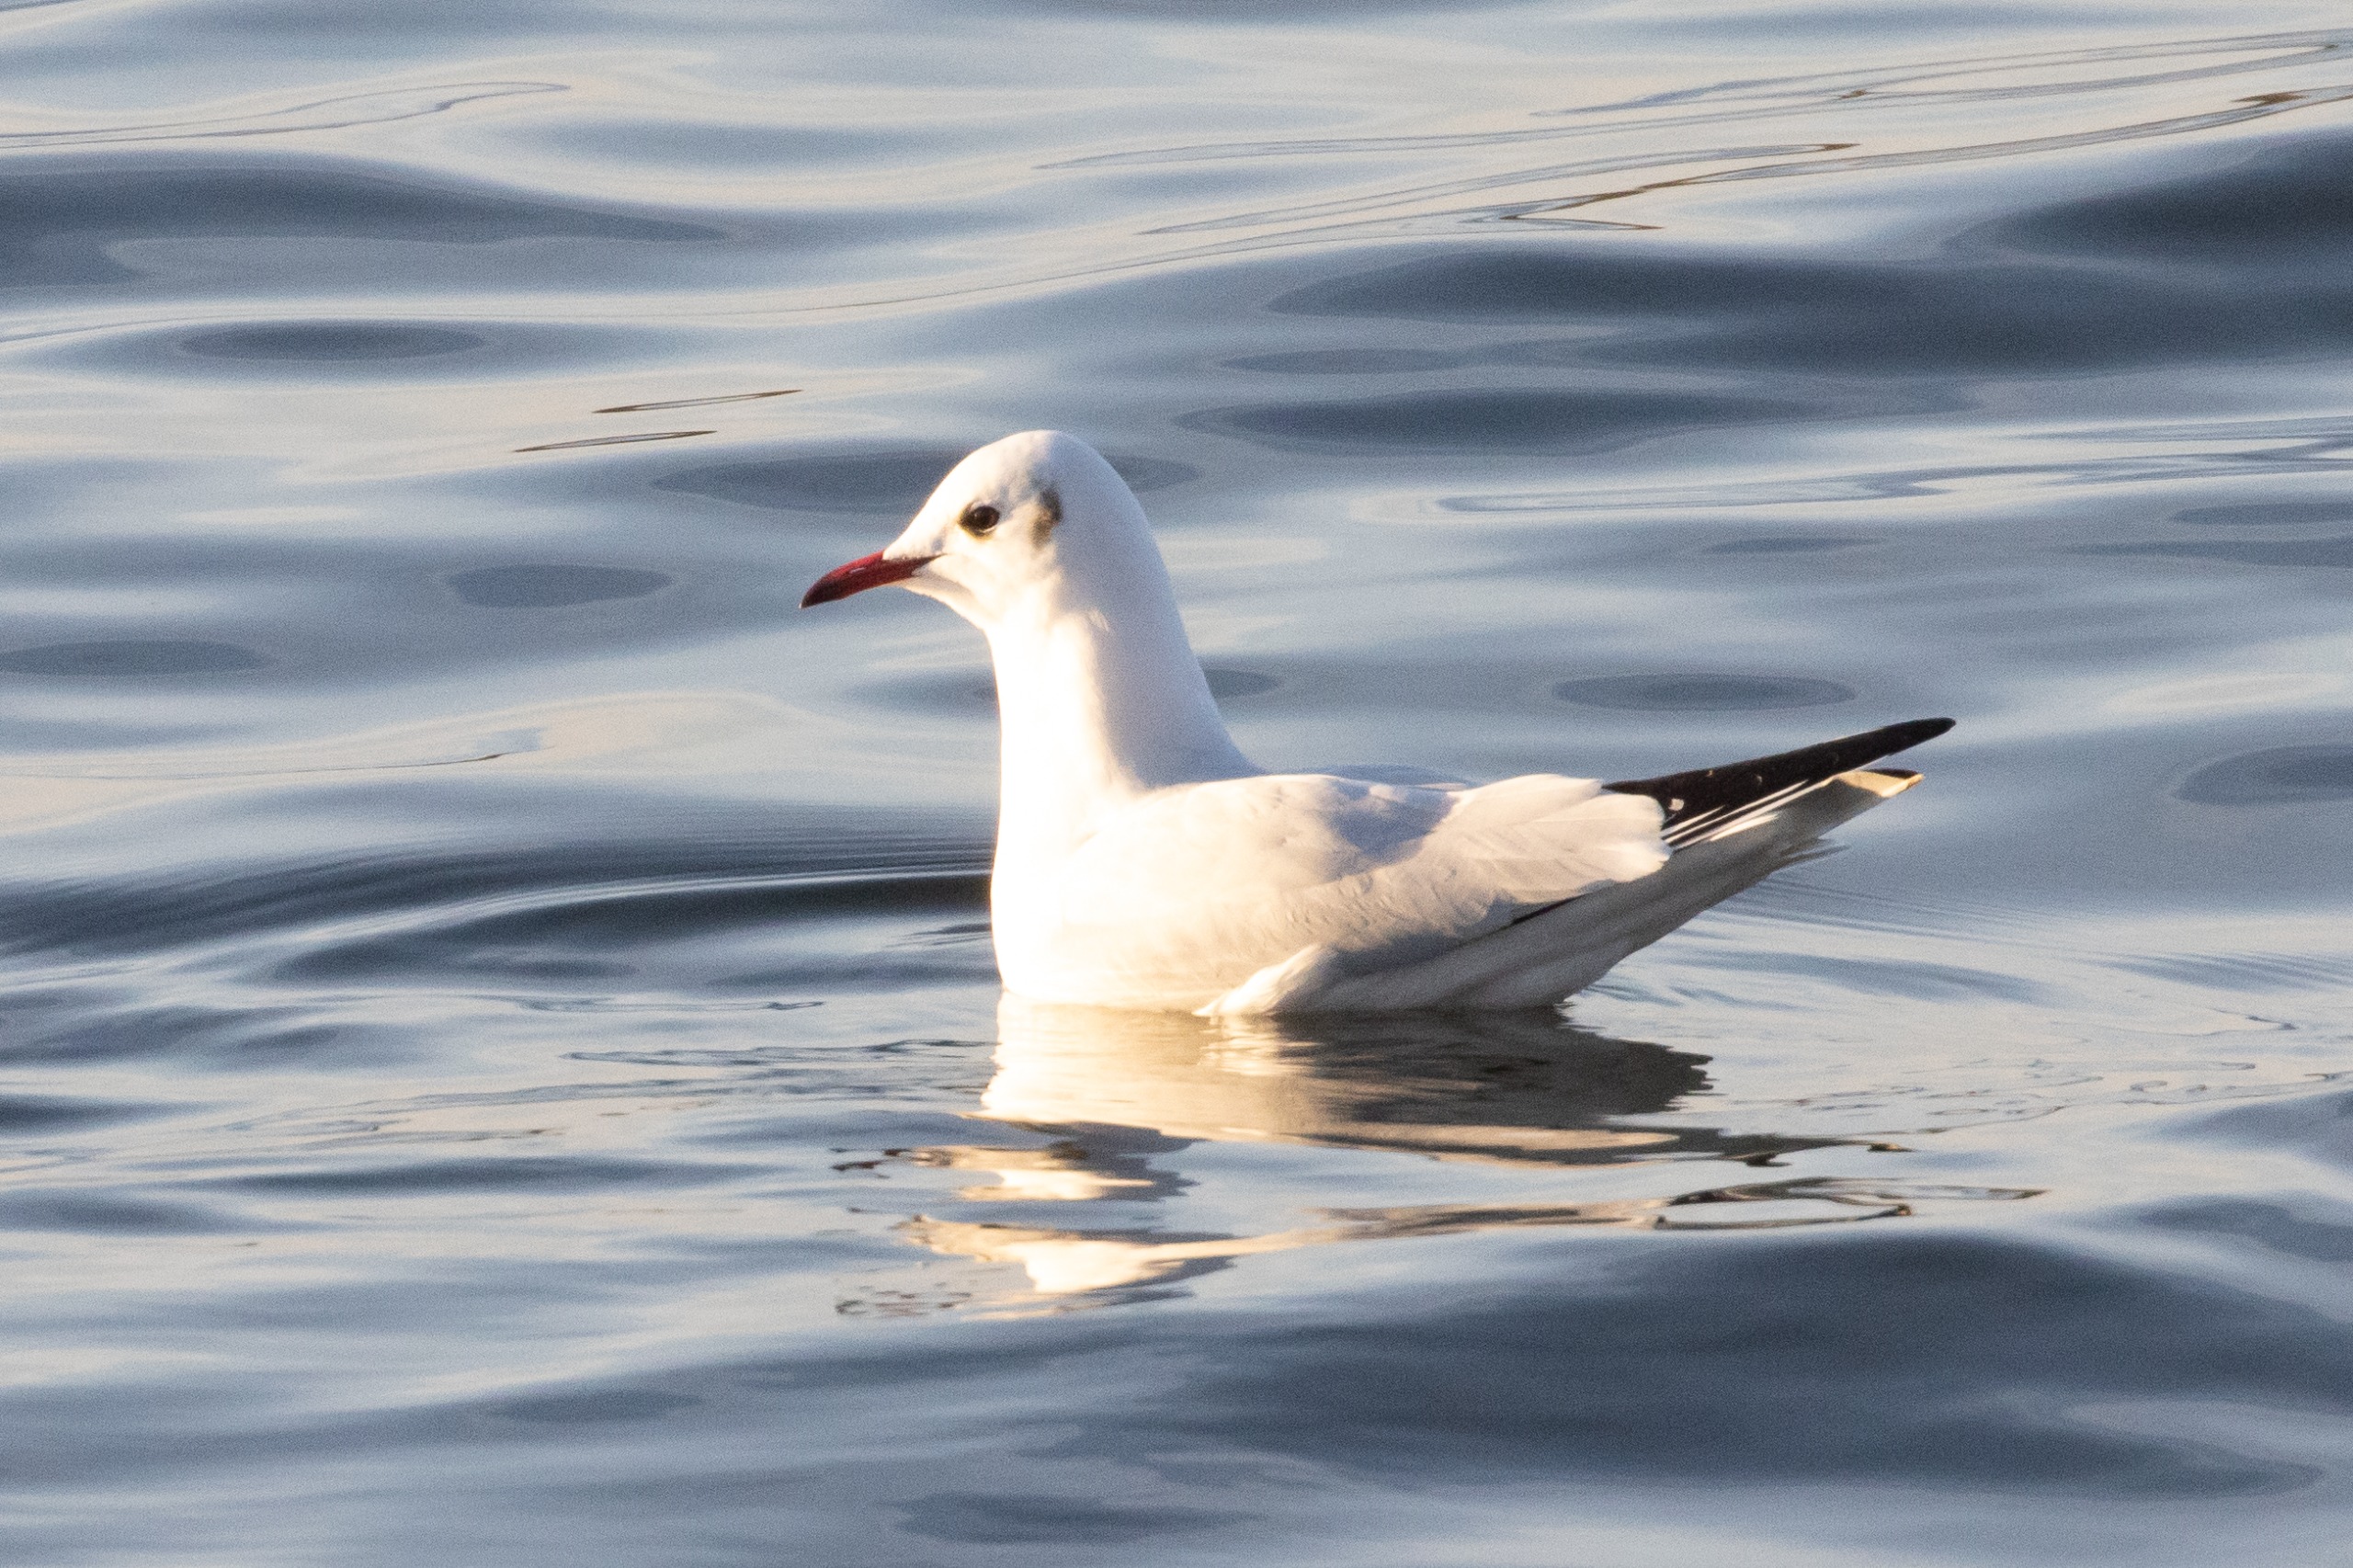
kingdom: Animalia
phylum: Chordata
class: Aves
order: Charadriiformes
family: Laridae
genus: Chroicocephalus
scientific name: Chroicocephalus ridibundus
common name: Hættemåge
